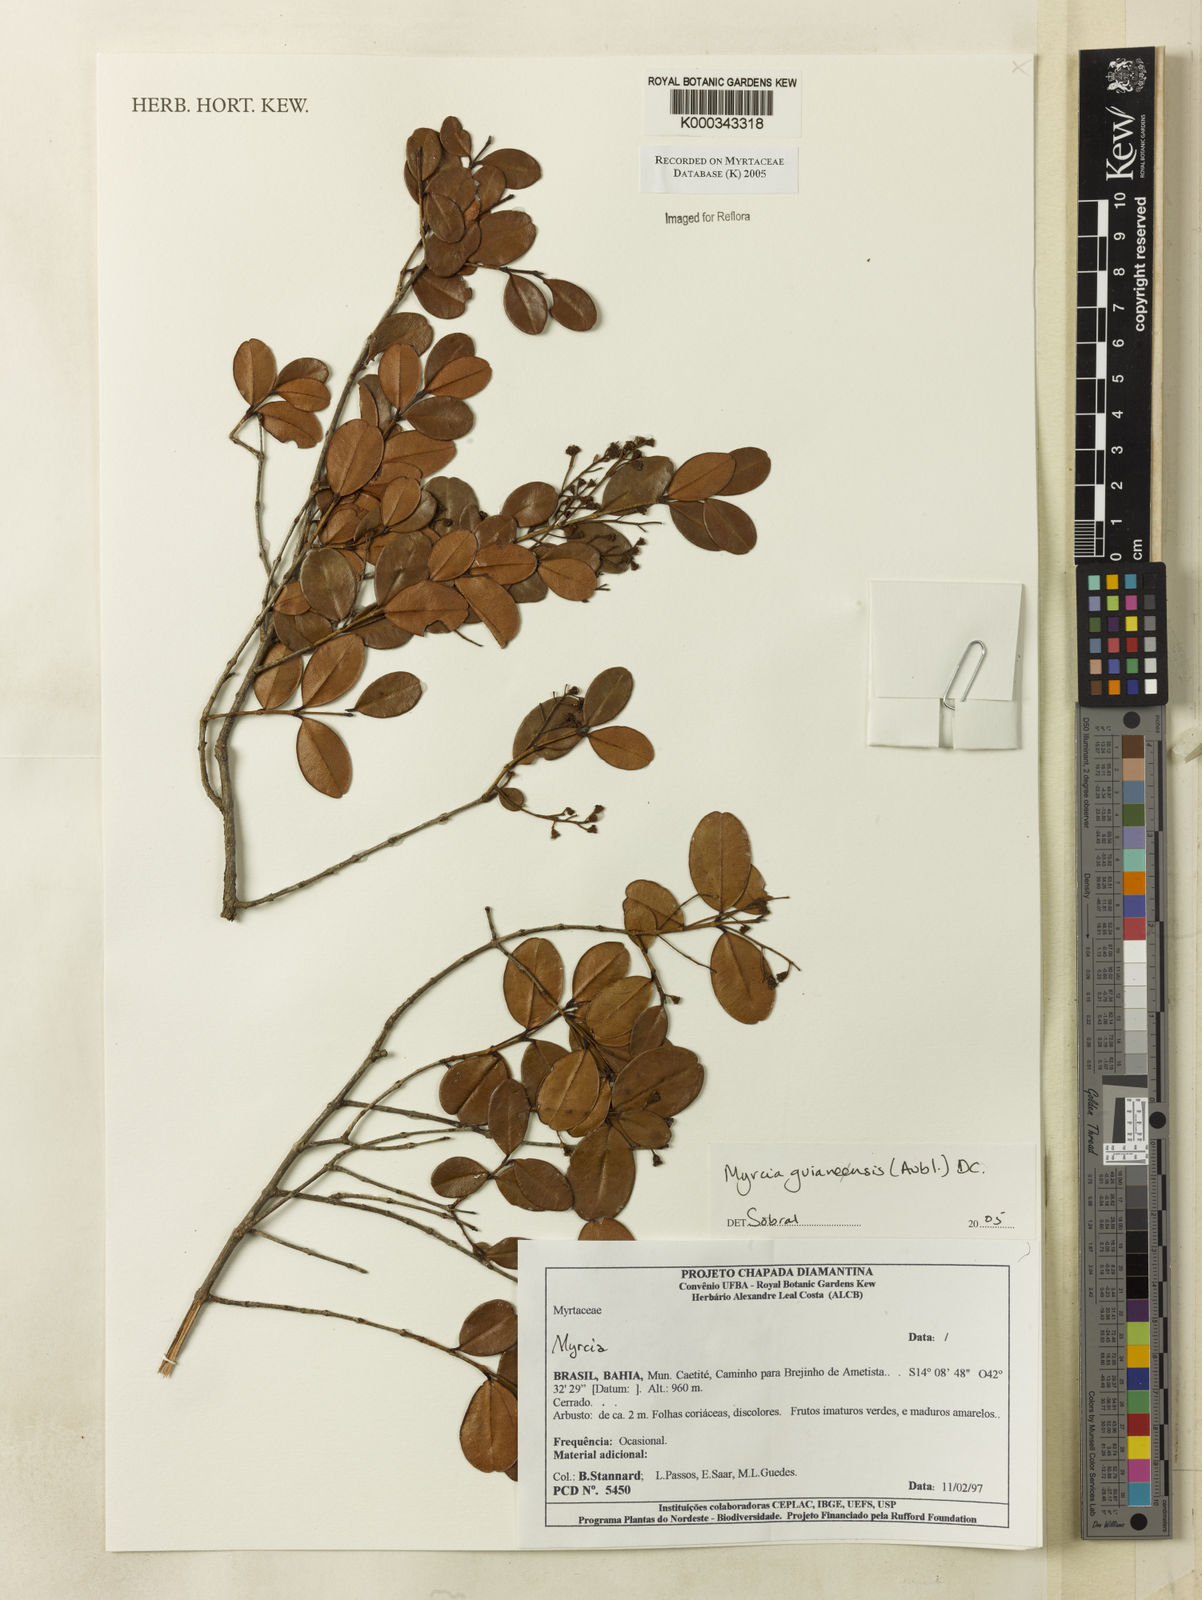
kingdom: Plantae
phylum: Tracheophyta
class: Magnoliopsida
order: Myrtales
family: Myrtaceae
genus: Myrcia
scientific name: Myrcia guianensis
